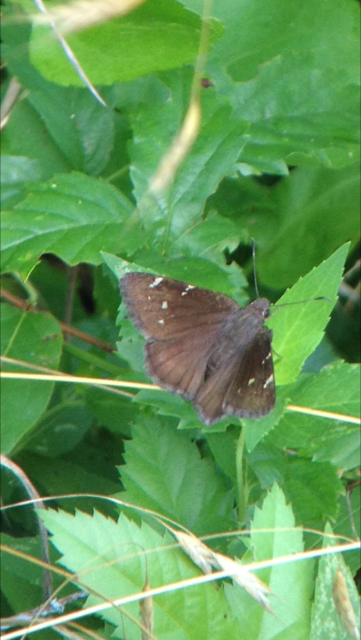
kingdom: Animalia
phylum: Arthropoda
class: Insecta
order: Lepidoptera
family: Hesperiidae
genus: Autochton
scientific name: Autochton
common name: Northern Cloudywing
